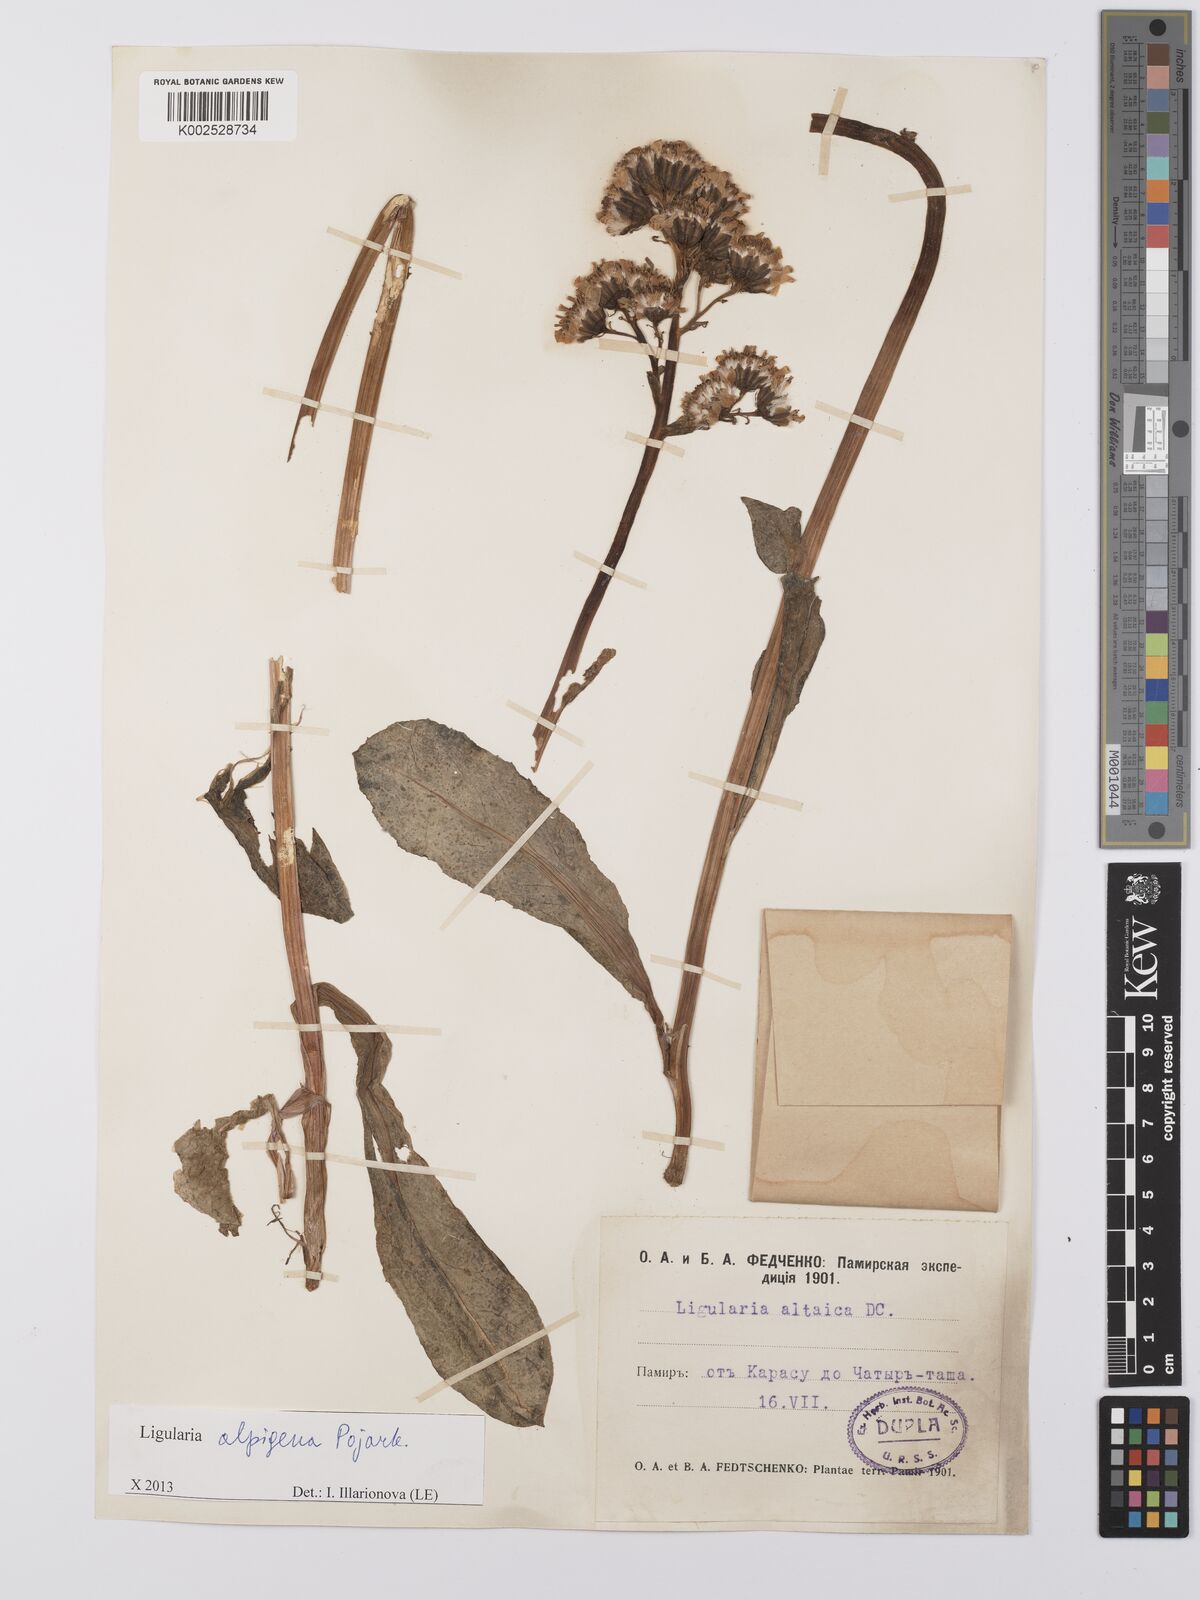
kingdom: Plantae
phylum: Tracheophyta
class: Magnoliopsida
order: Asterales
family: Asteraceae
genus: Ligularia
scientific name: Ligularia alpigena
